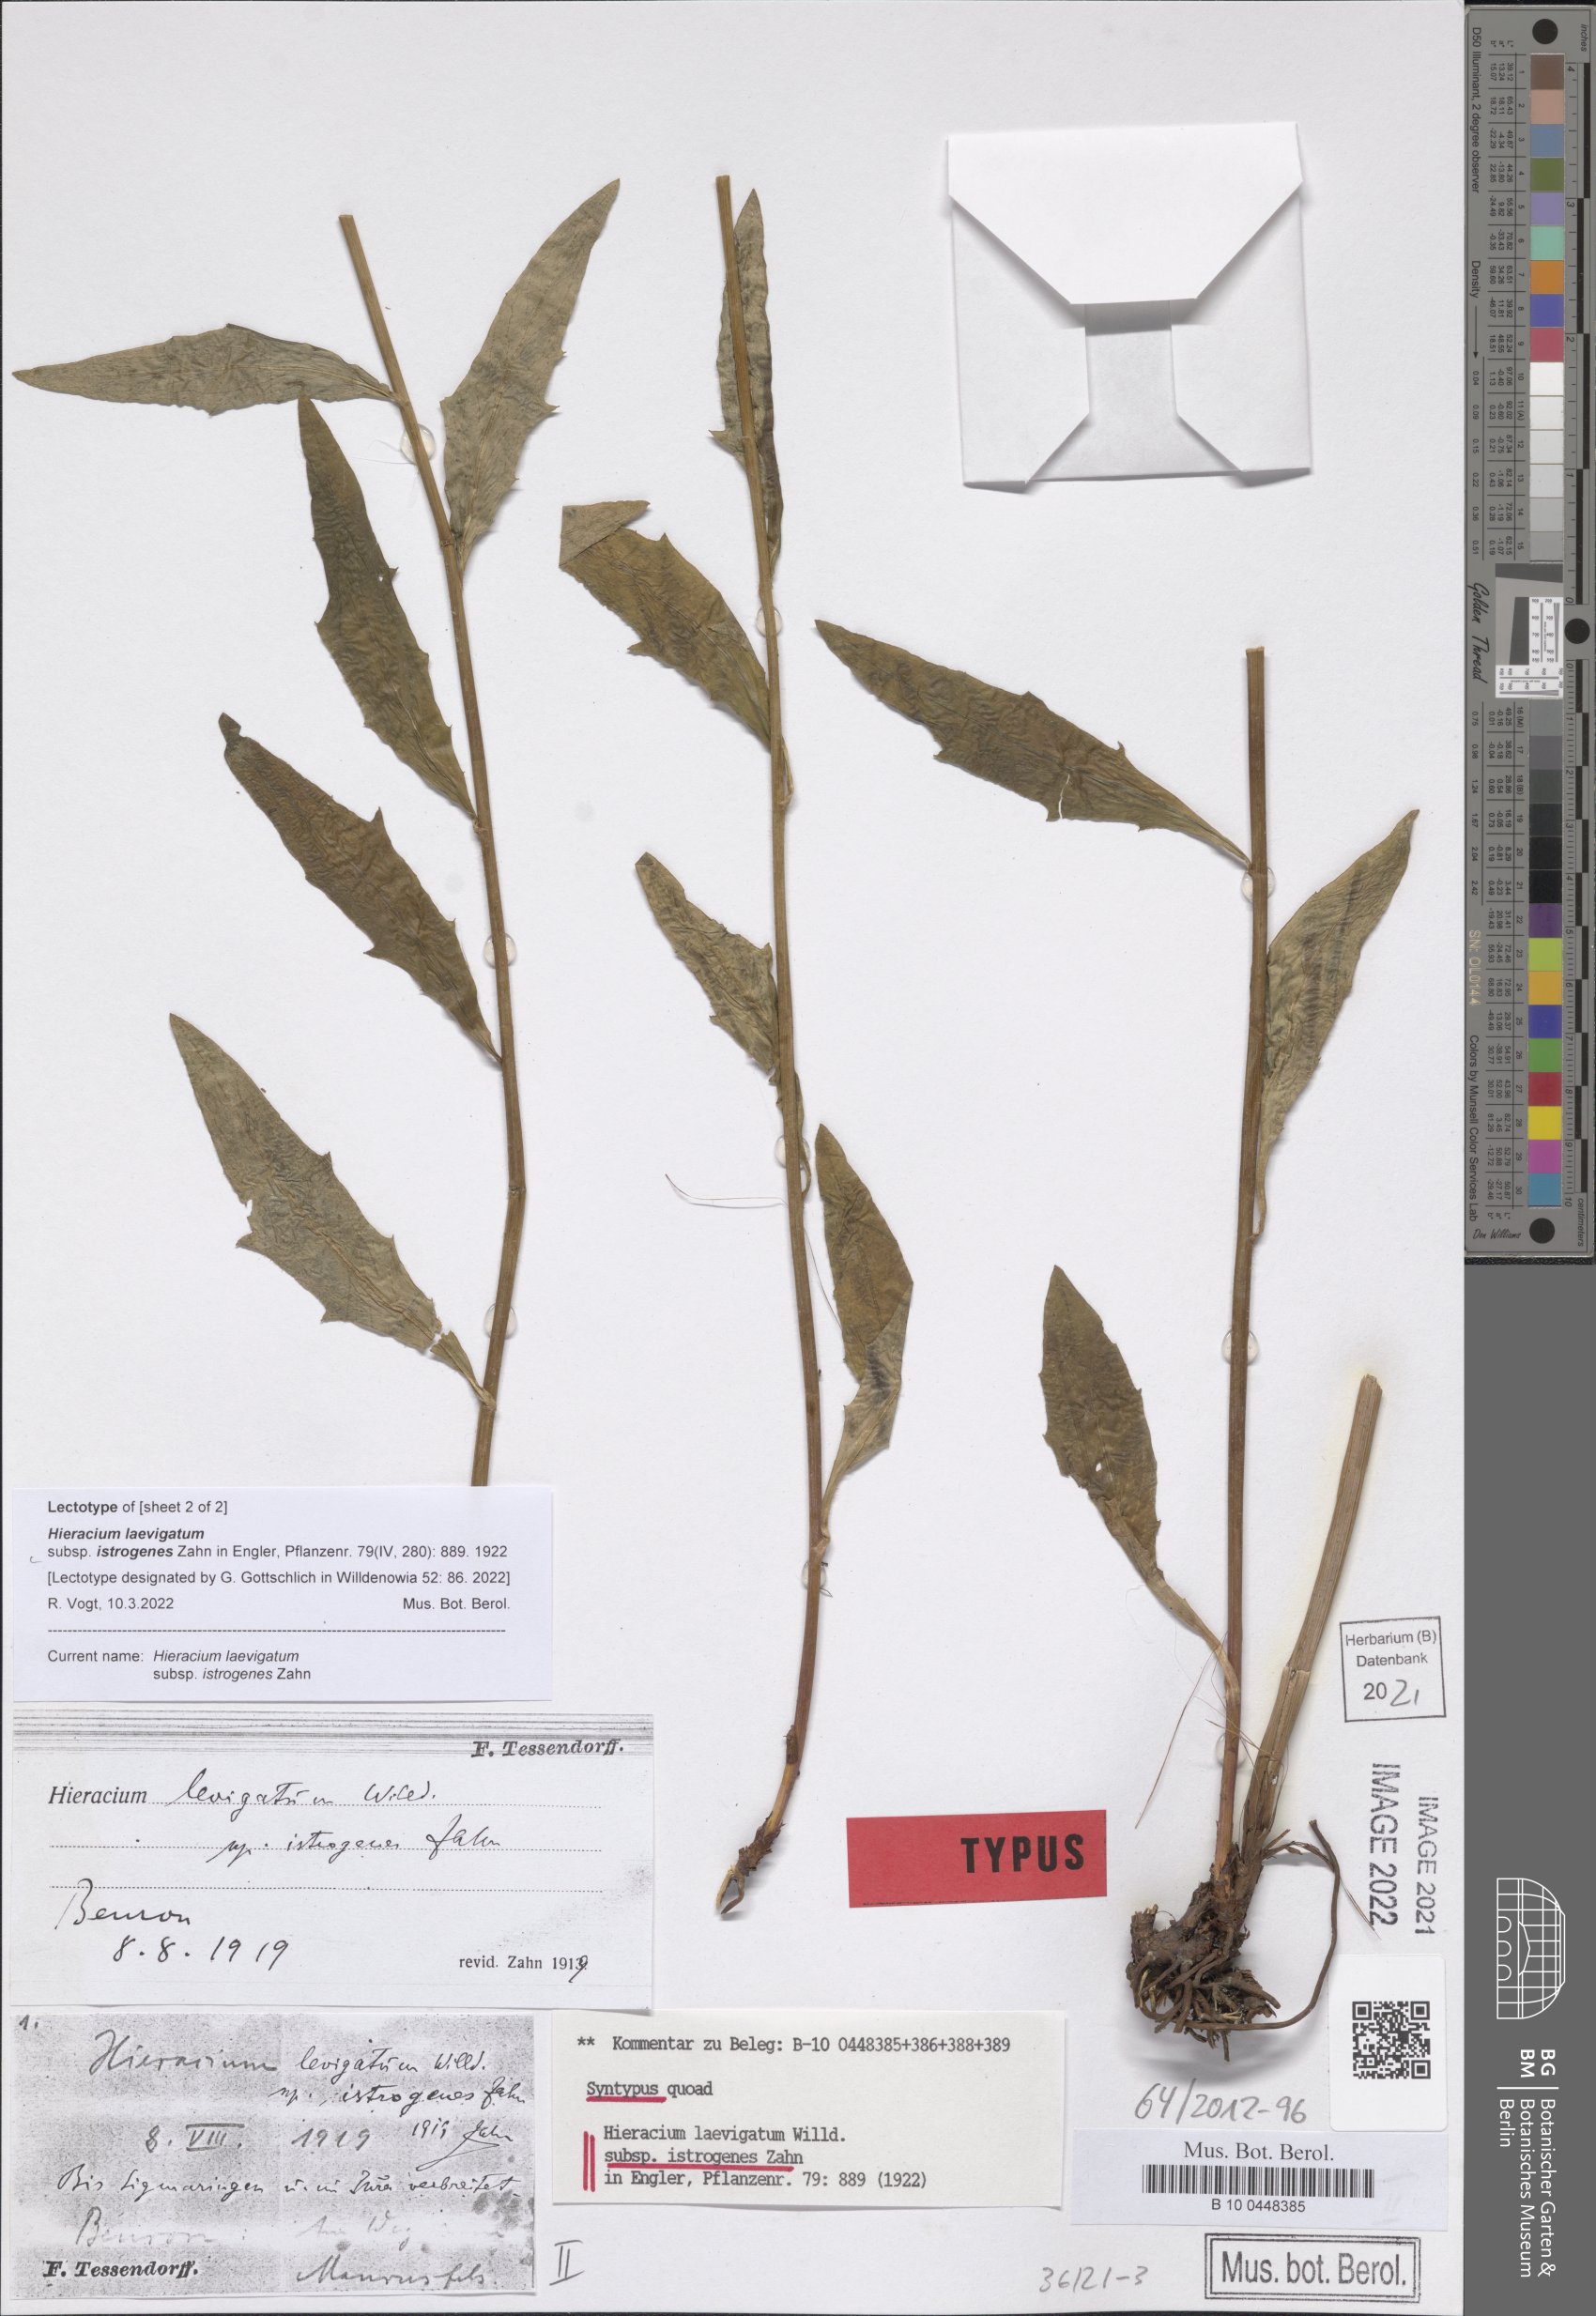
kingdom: Plantae
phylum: Tracheophyta
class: Magnoliopsida
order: Asterales
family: Asteraceae
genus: Hieracium
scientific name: Hieracium laevigatum
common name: Smooth hawkweed
